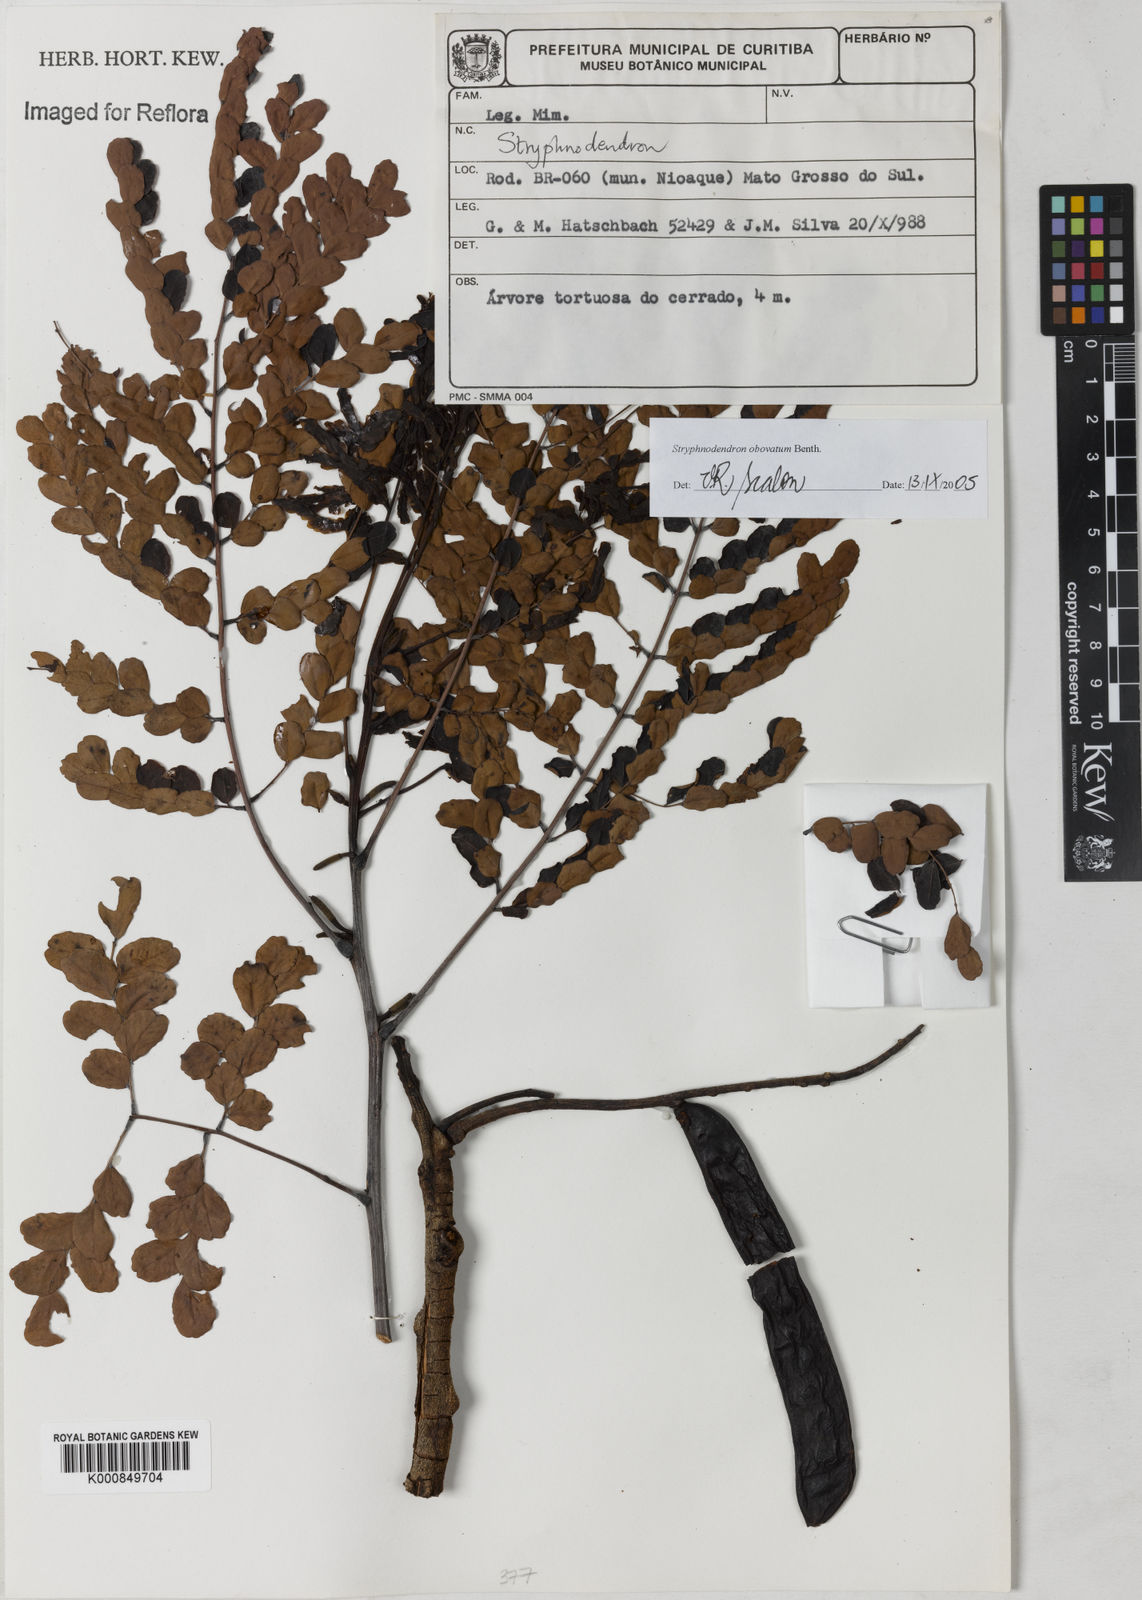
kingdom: Plantae
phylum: Tracheophyta
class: Magnoliopsida
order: Fabales
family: Fabaceae
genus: Stryphnodendron
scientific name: Stryphnodendron rotundifolium
